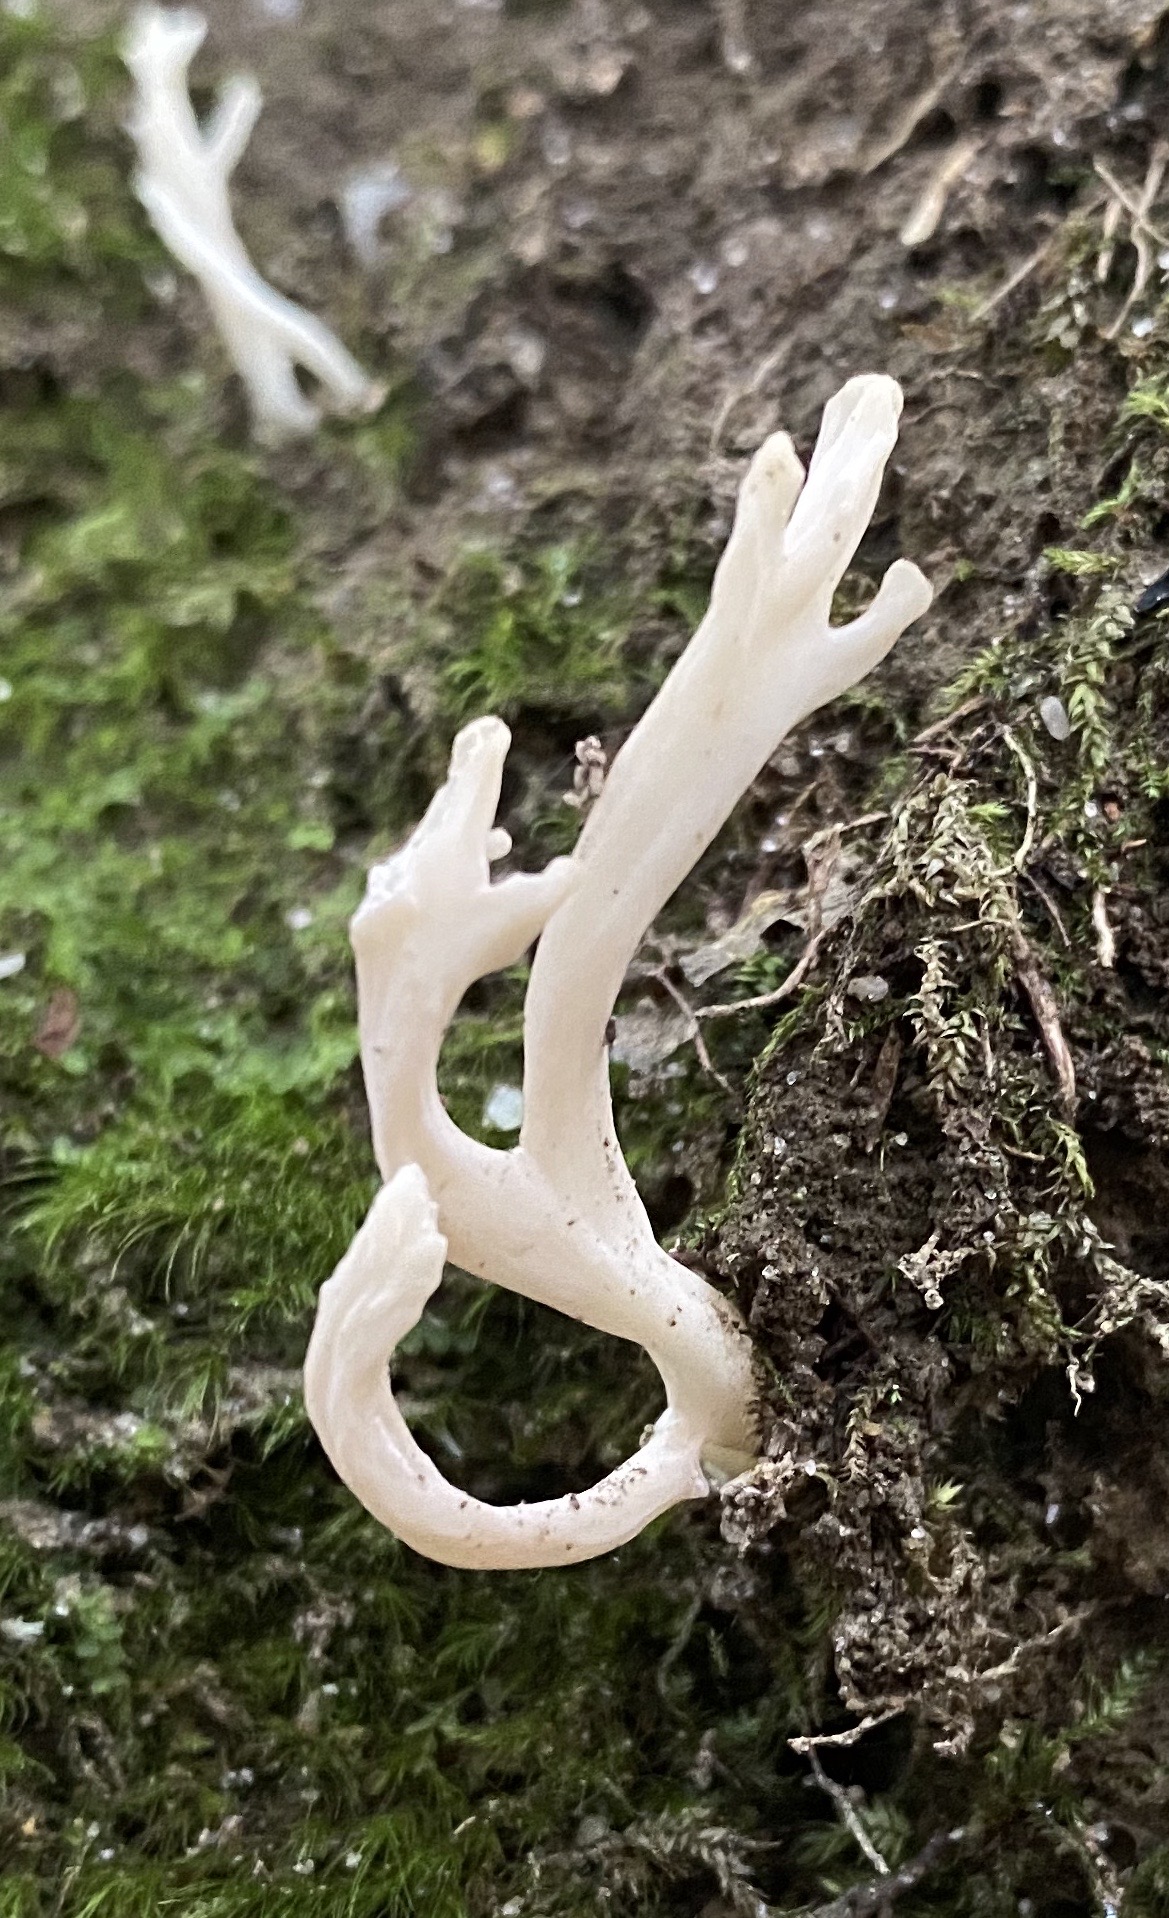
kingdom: Fungi
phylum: Basidiomycota
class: Agaricomycetes
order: Cantharellales
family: Hydnaceae
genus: Clavulina
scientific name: Clavulina
